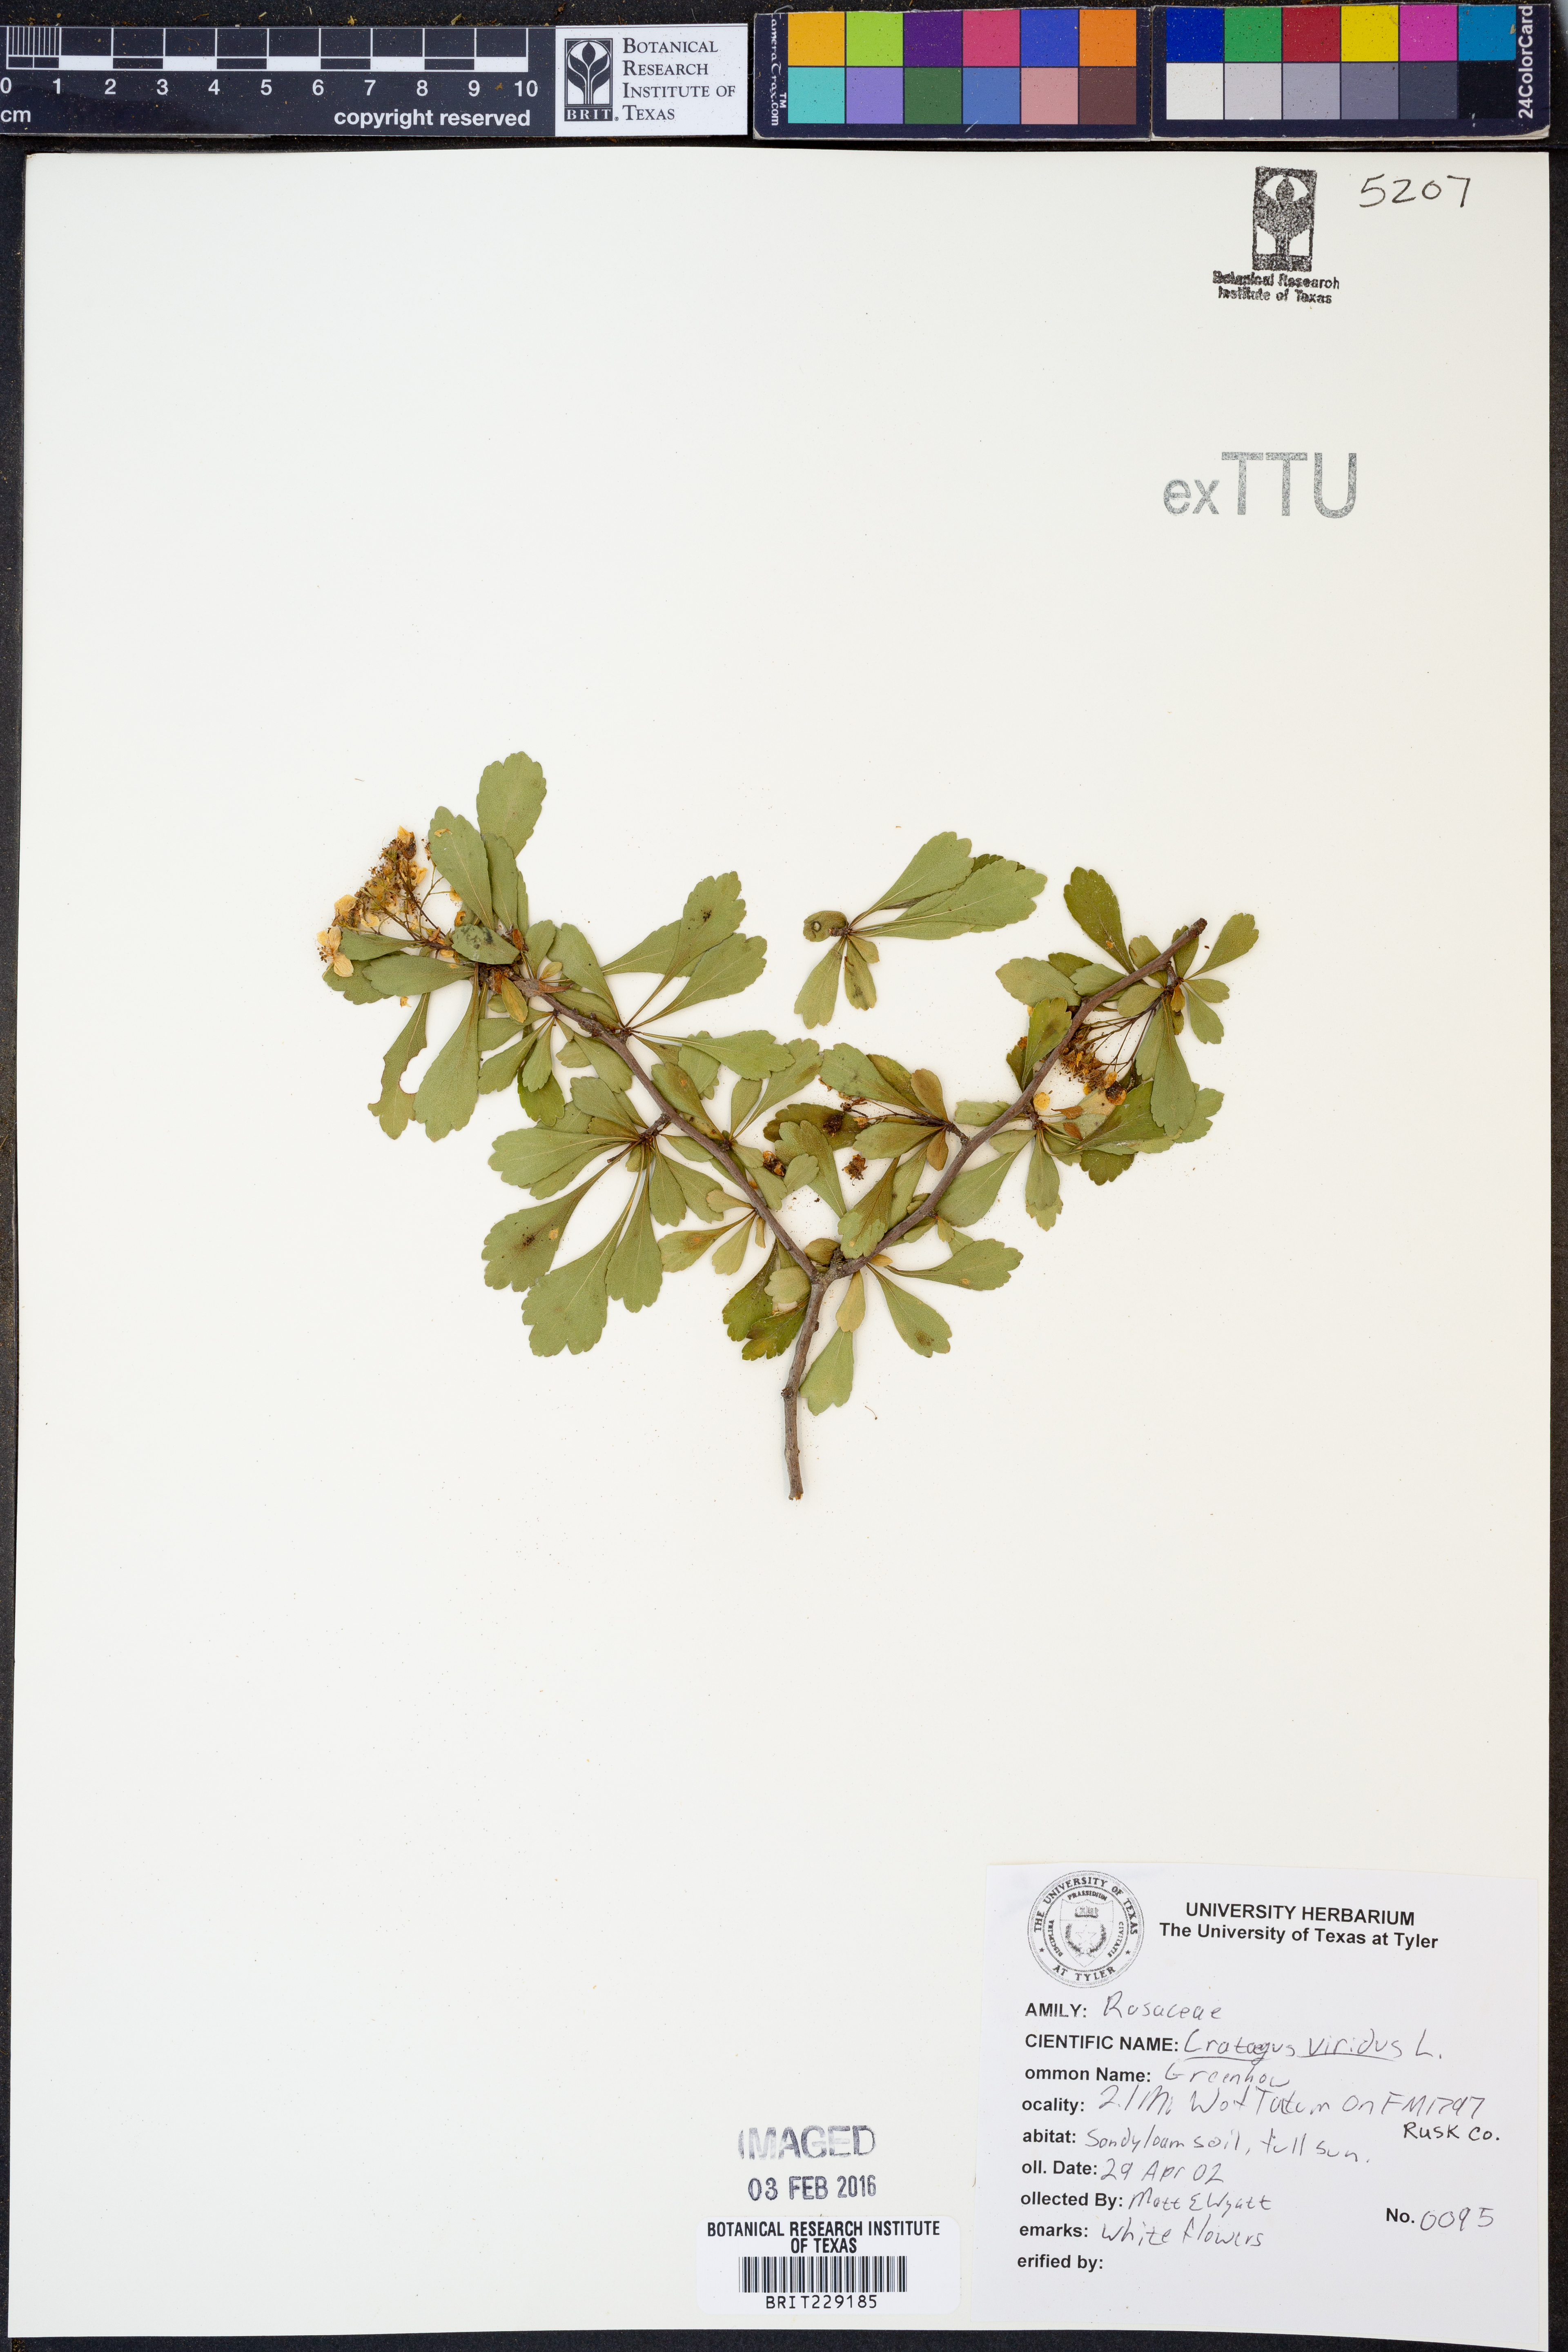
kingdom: Plantae
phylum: Tracheophyta
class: Magnoliopsida
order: Rosales
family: Rosaceae
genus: Crataegus
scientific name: Crataegus viridis
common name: Southernthorn
